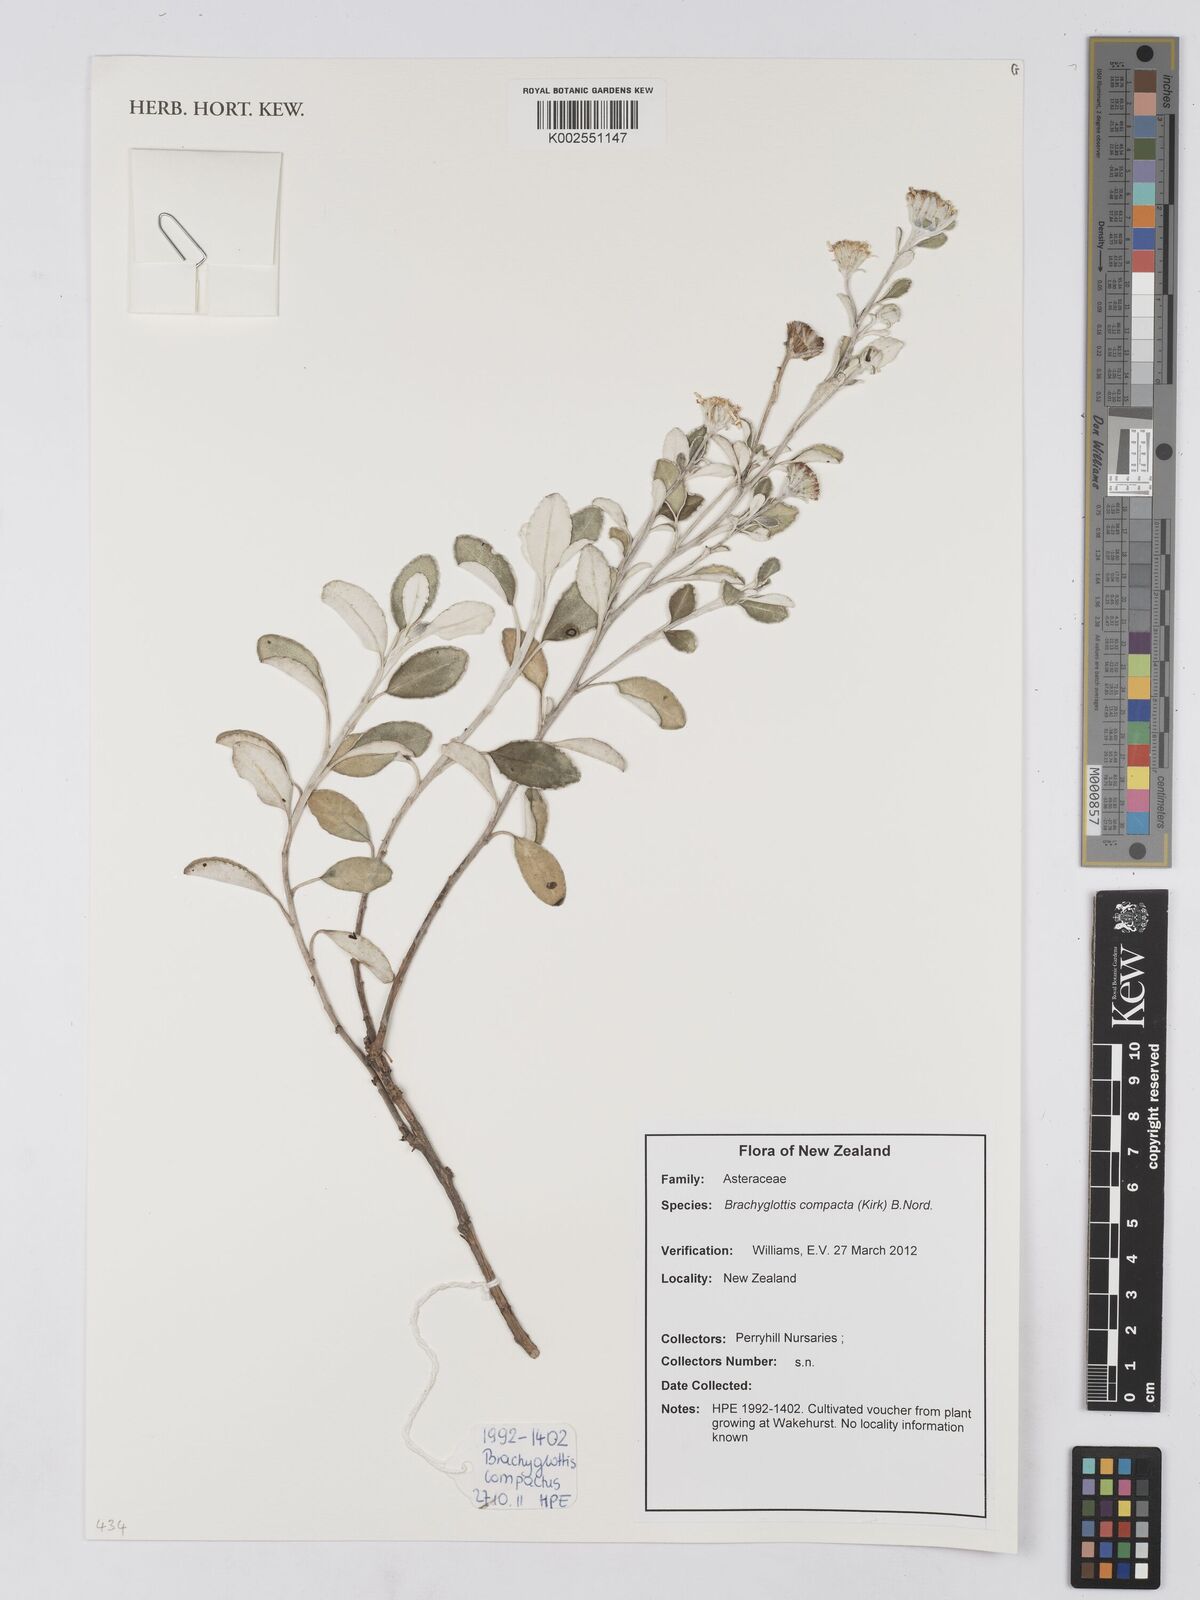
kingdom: Plantae
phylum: Tracheophyta
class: Magnoliopsida
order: Asterales
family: Asteraceae
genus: Brachyglottis
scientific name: Brachyglottis compacta
